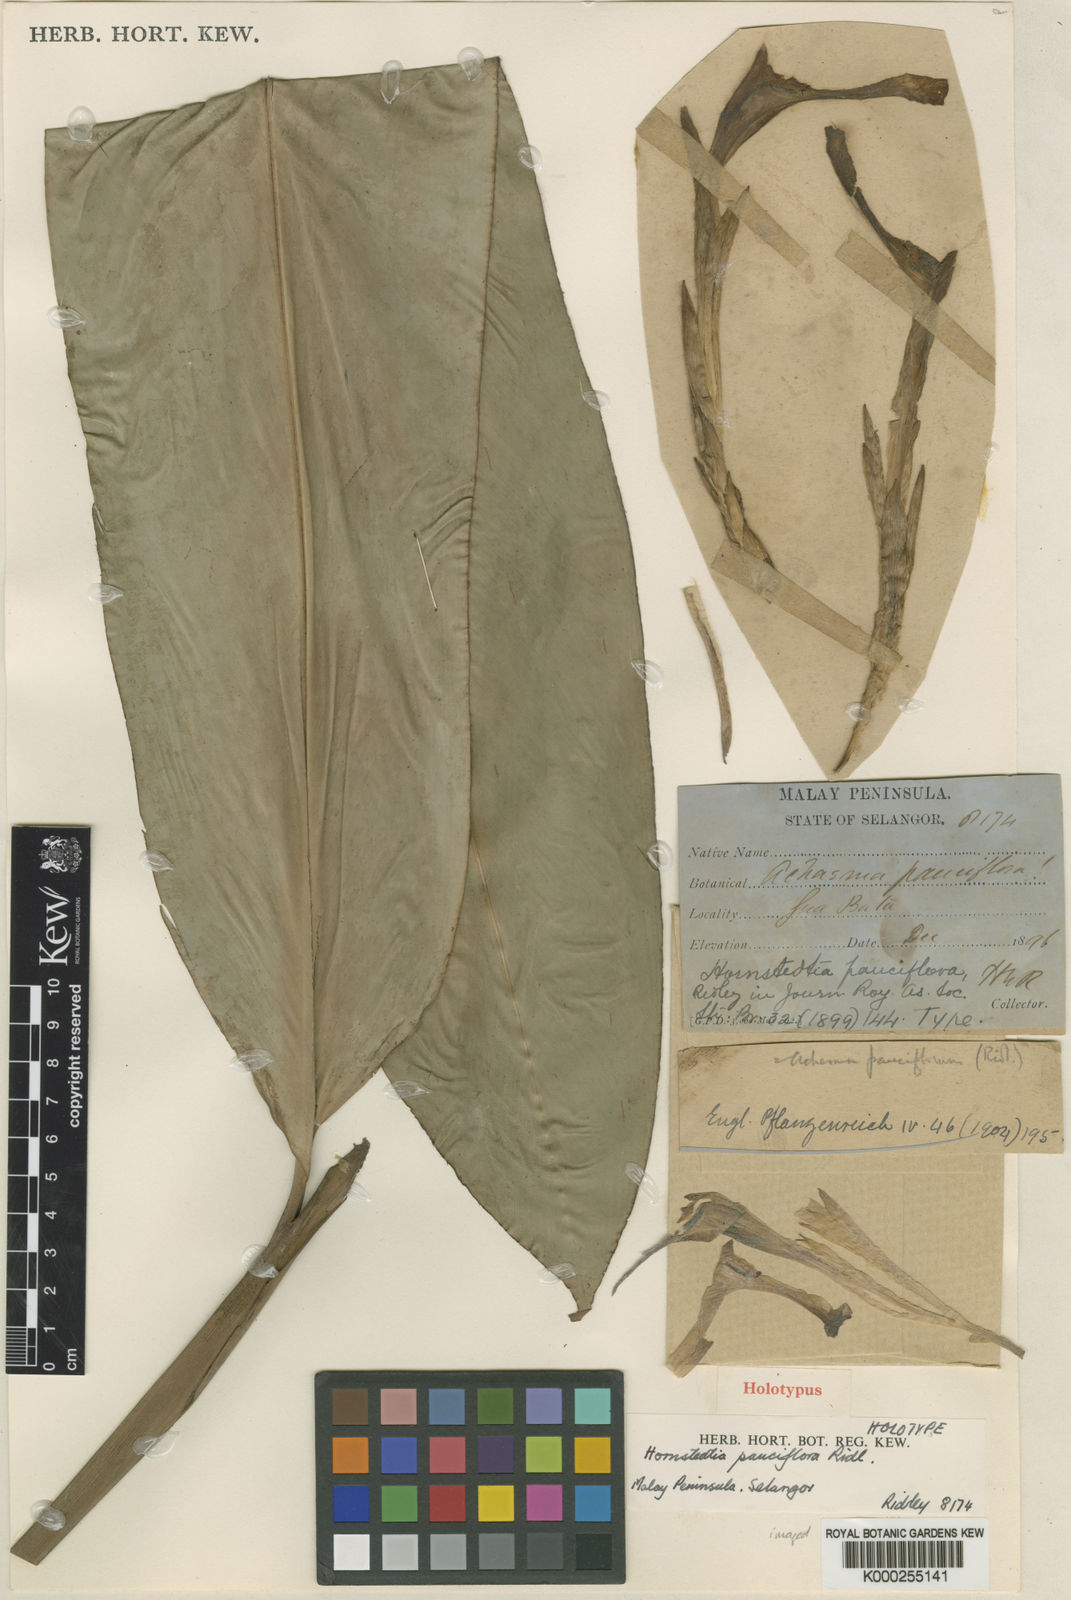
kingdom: Plantae
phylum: Tracheophyta
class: Liliopsida
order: Zingiberales
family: Zingiberaceae
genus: Etlingera
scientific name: Etlingera pauciflora
